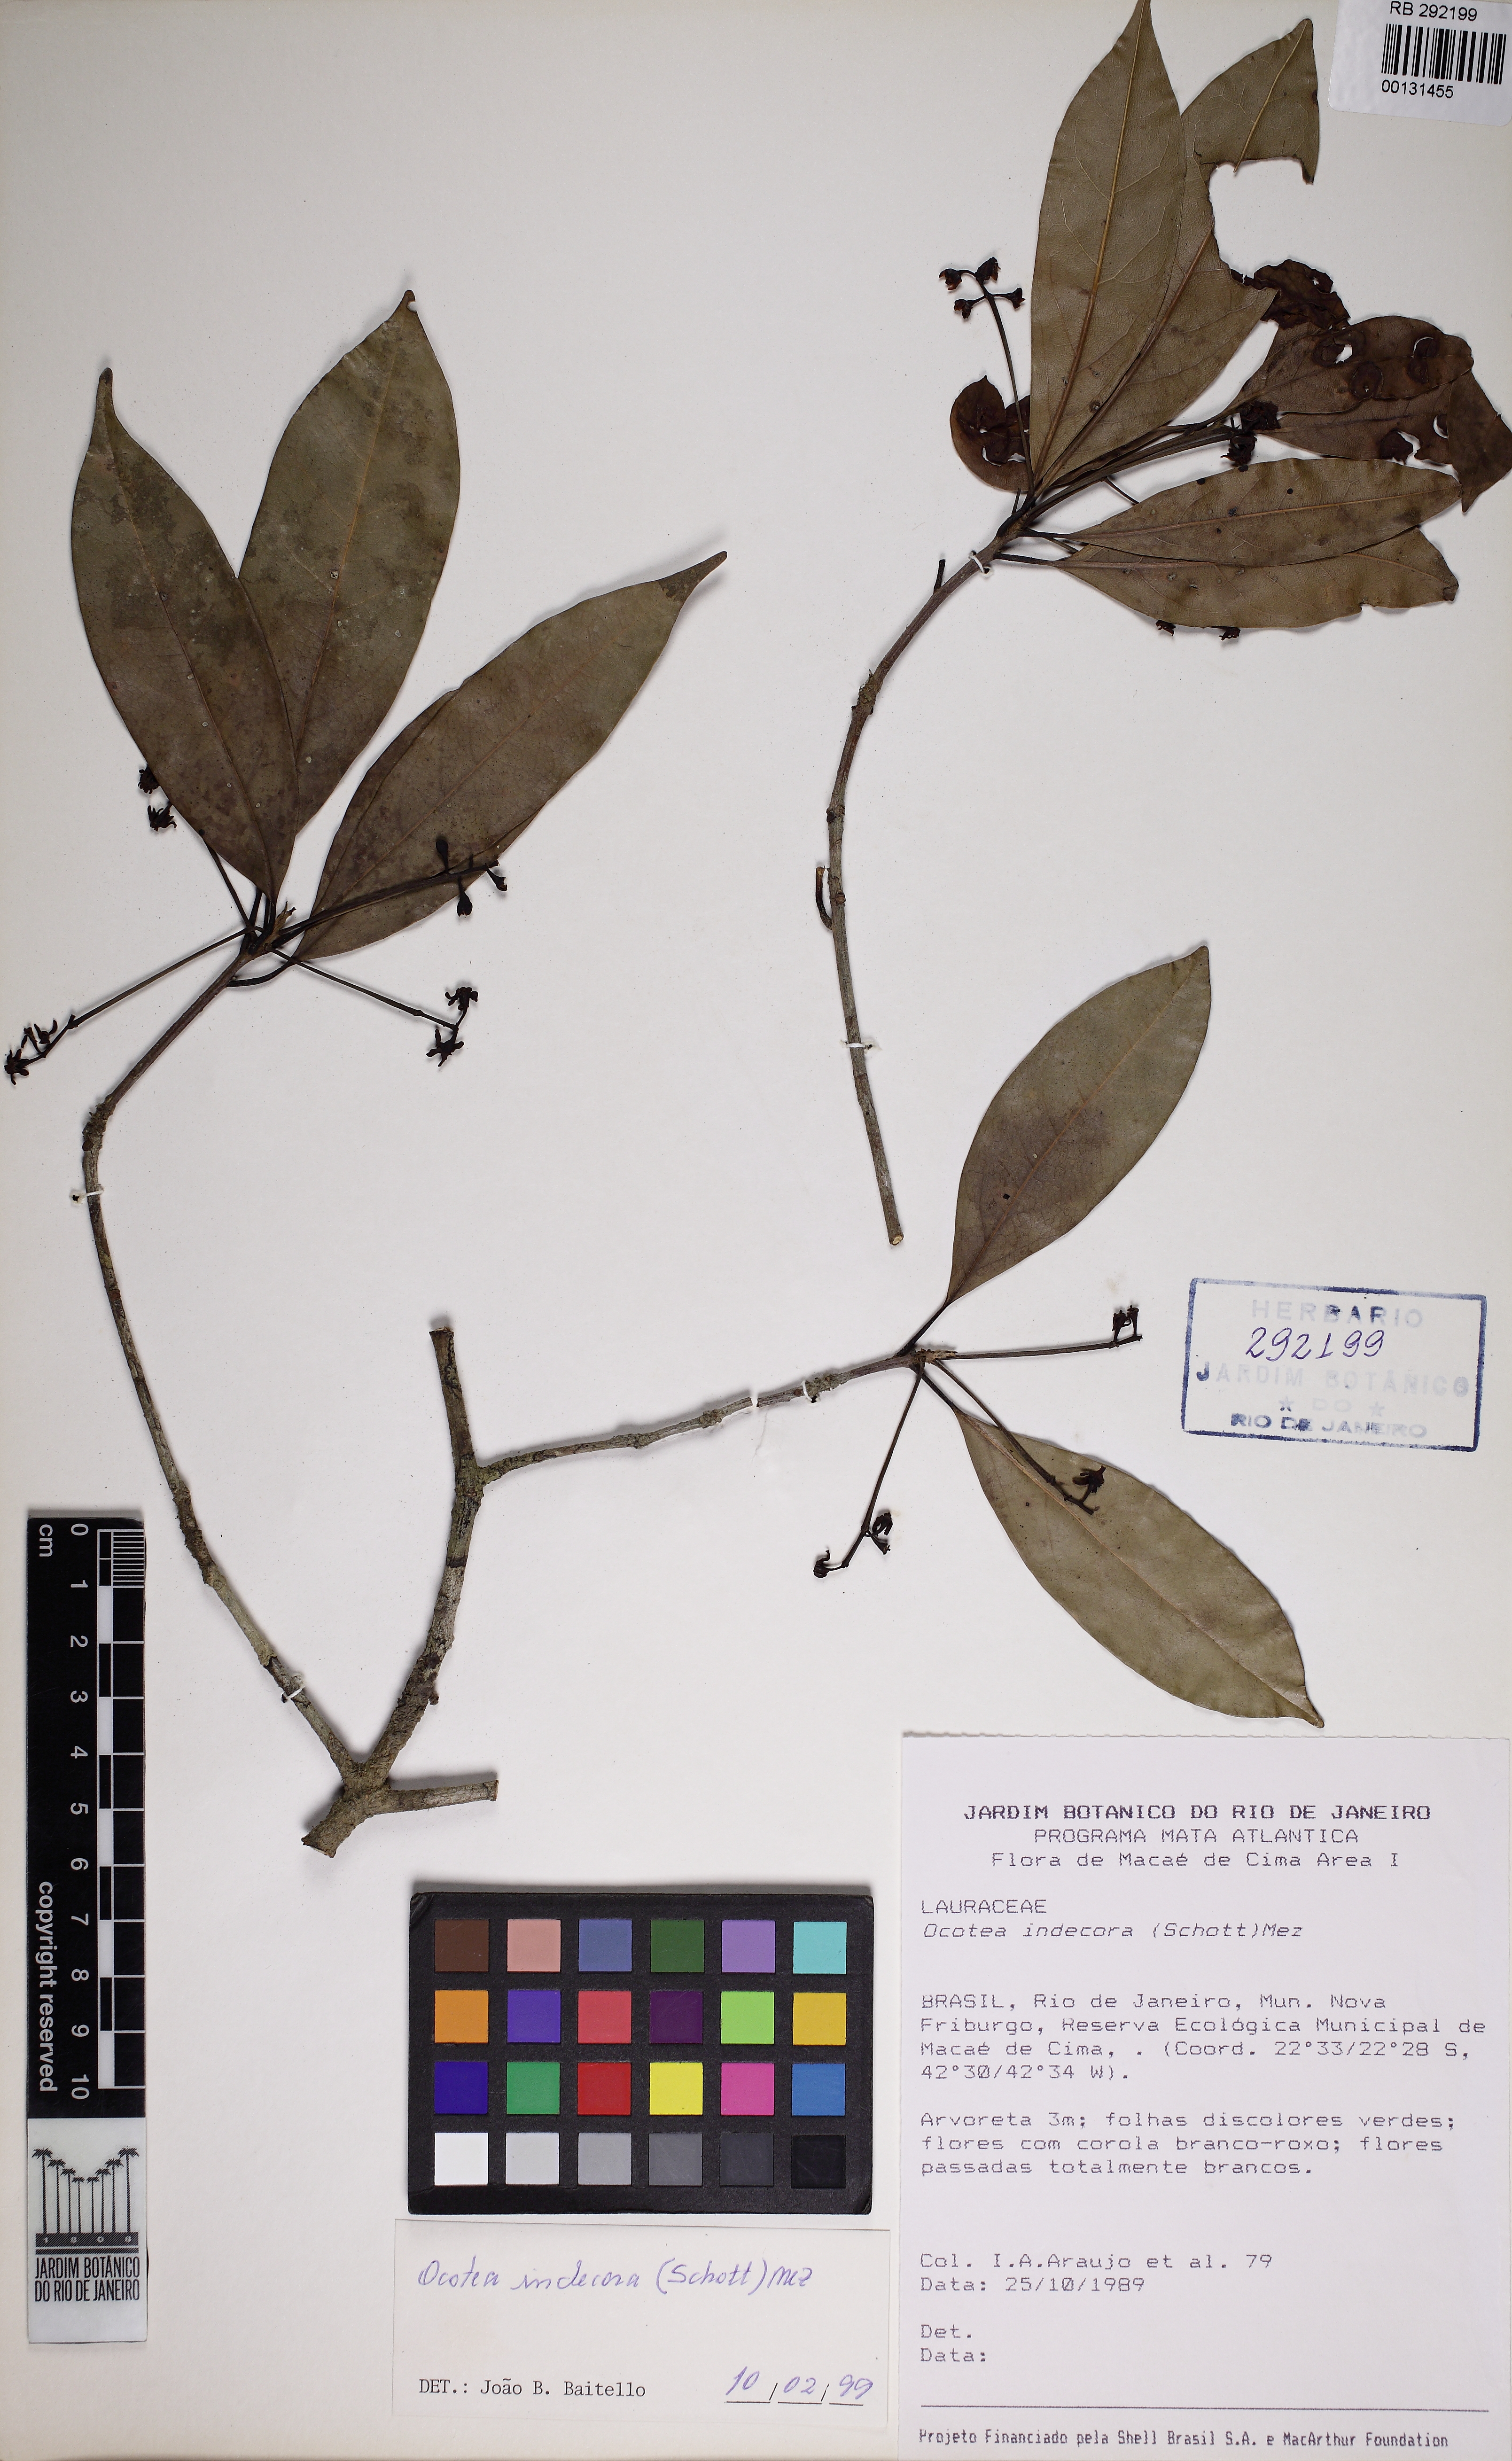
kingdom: Plantae
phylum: Tracheophyta
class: Magnoliopsida
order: Laurales
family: Lauraceae
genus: Mespilodaphne
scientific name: Mespilodaphne indecora
